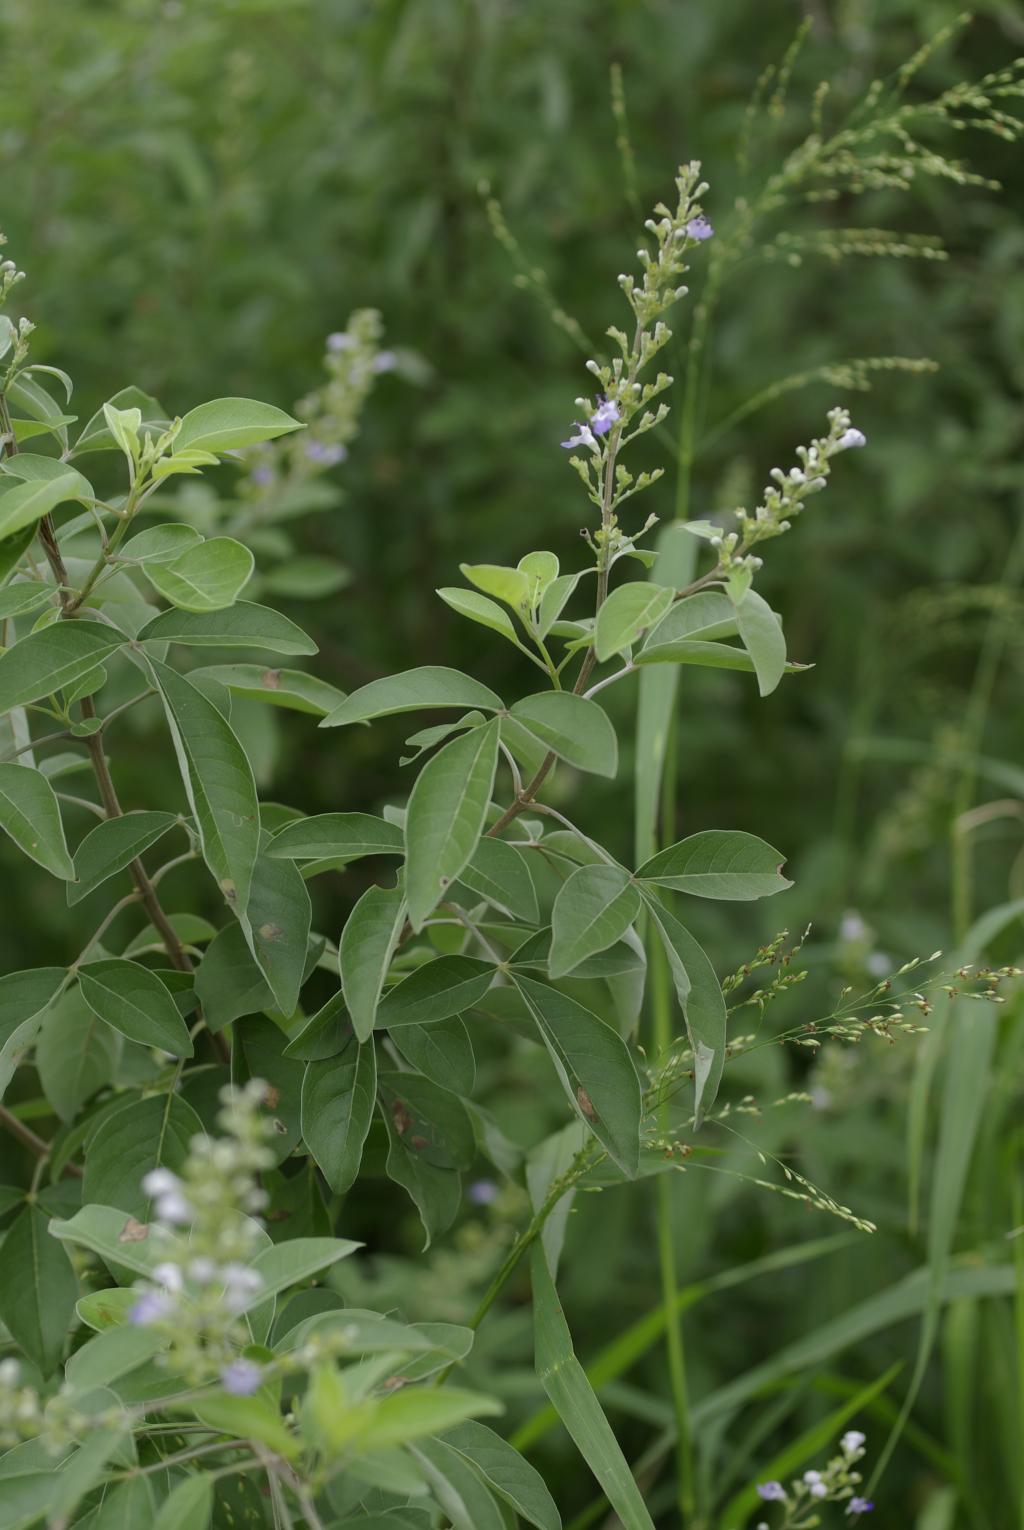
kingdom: Plantae
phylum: Tracheophyta
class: Magnoliopsida
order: Lamiales
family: Lamiaceae
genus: Vitex
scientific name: Vitex trifolia
